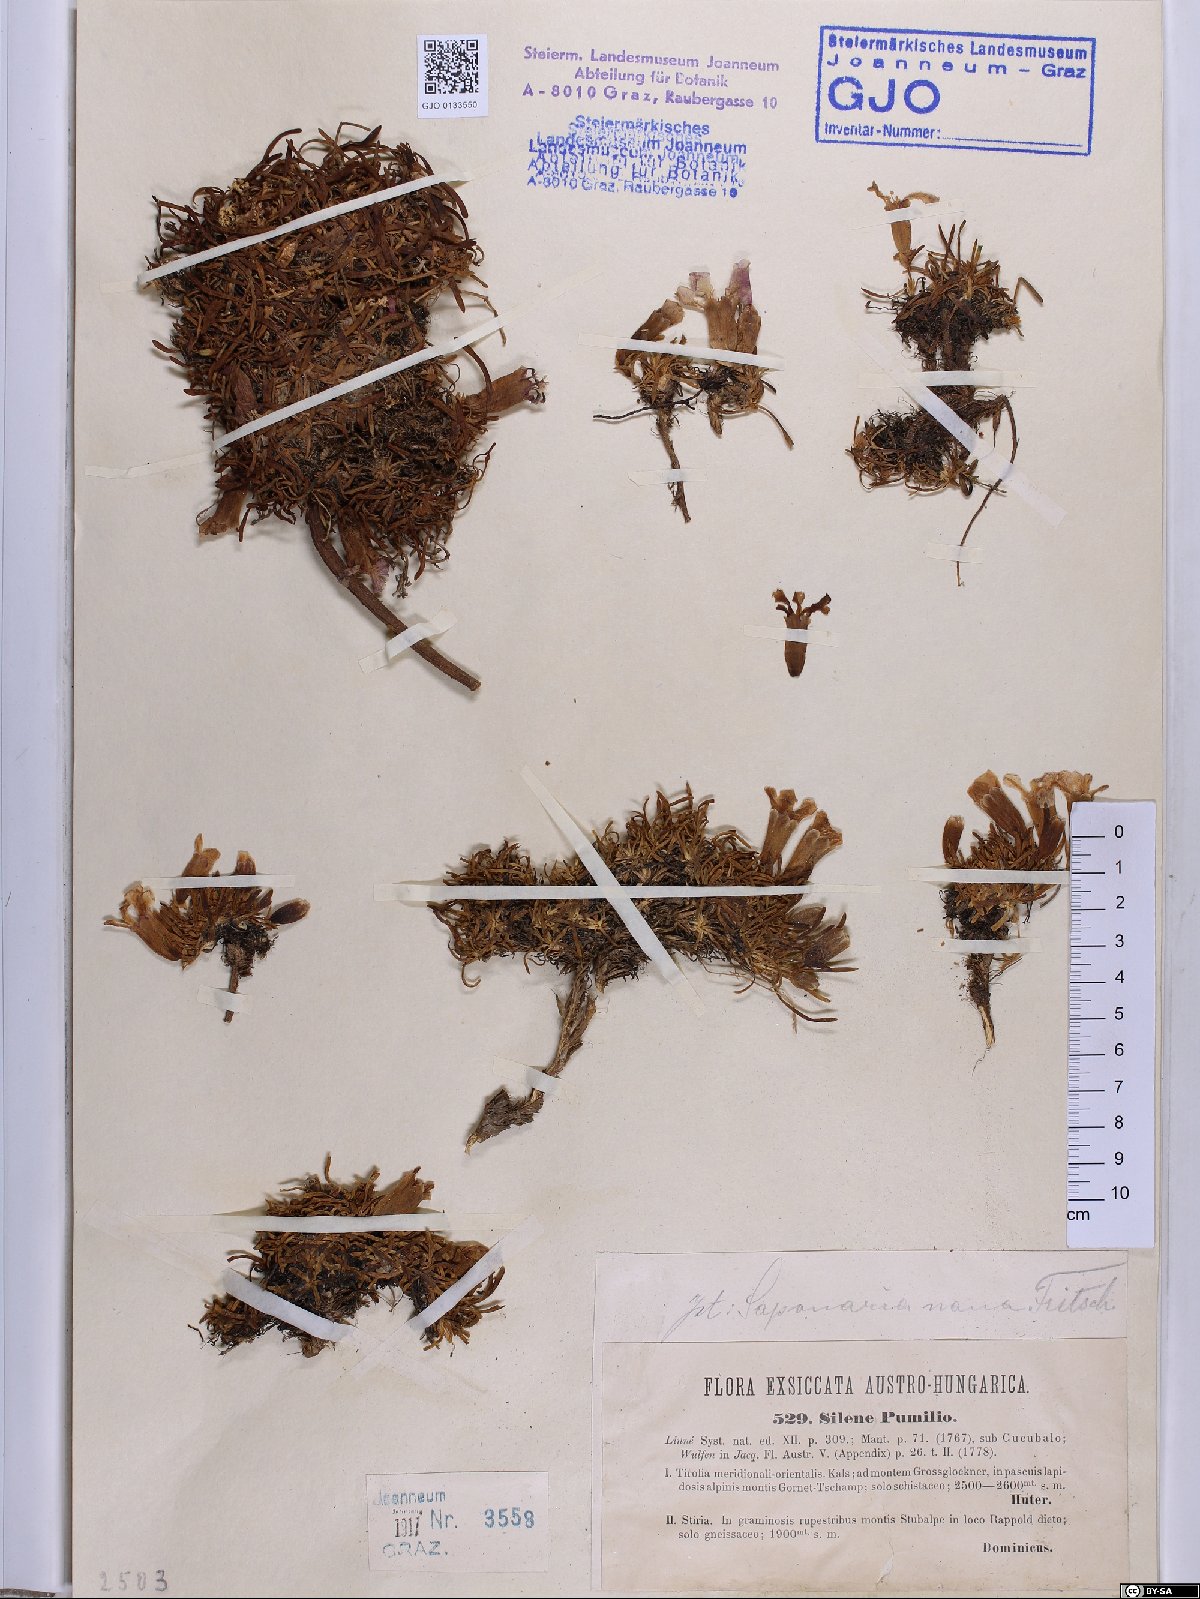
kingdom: Plantae
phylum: Tracheophyta
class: Magnoliopsida
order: Caryophyllales
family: Caryophyllaceae
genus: Saponaria
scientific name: Saponaria pumila
